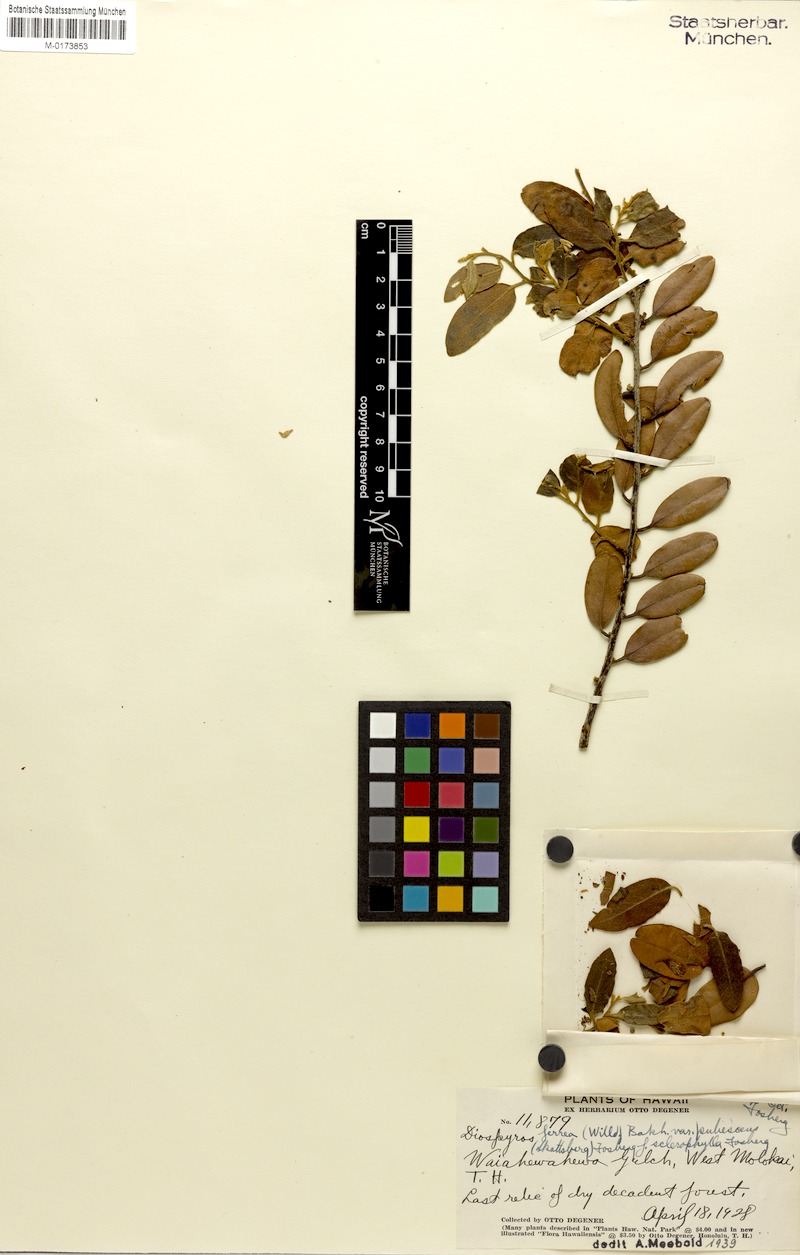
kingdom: Plantae
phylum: Tracheophyta
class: Magnoliopsida
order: Ericales
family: Ebenaceae
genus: Diospyros
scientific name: Diospyros sandwicensis
